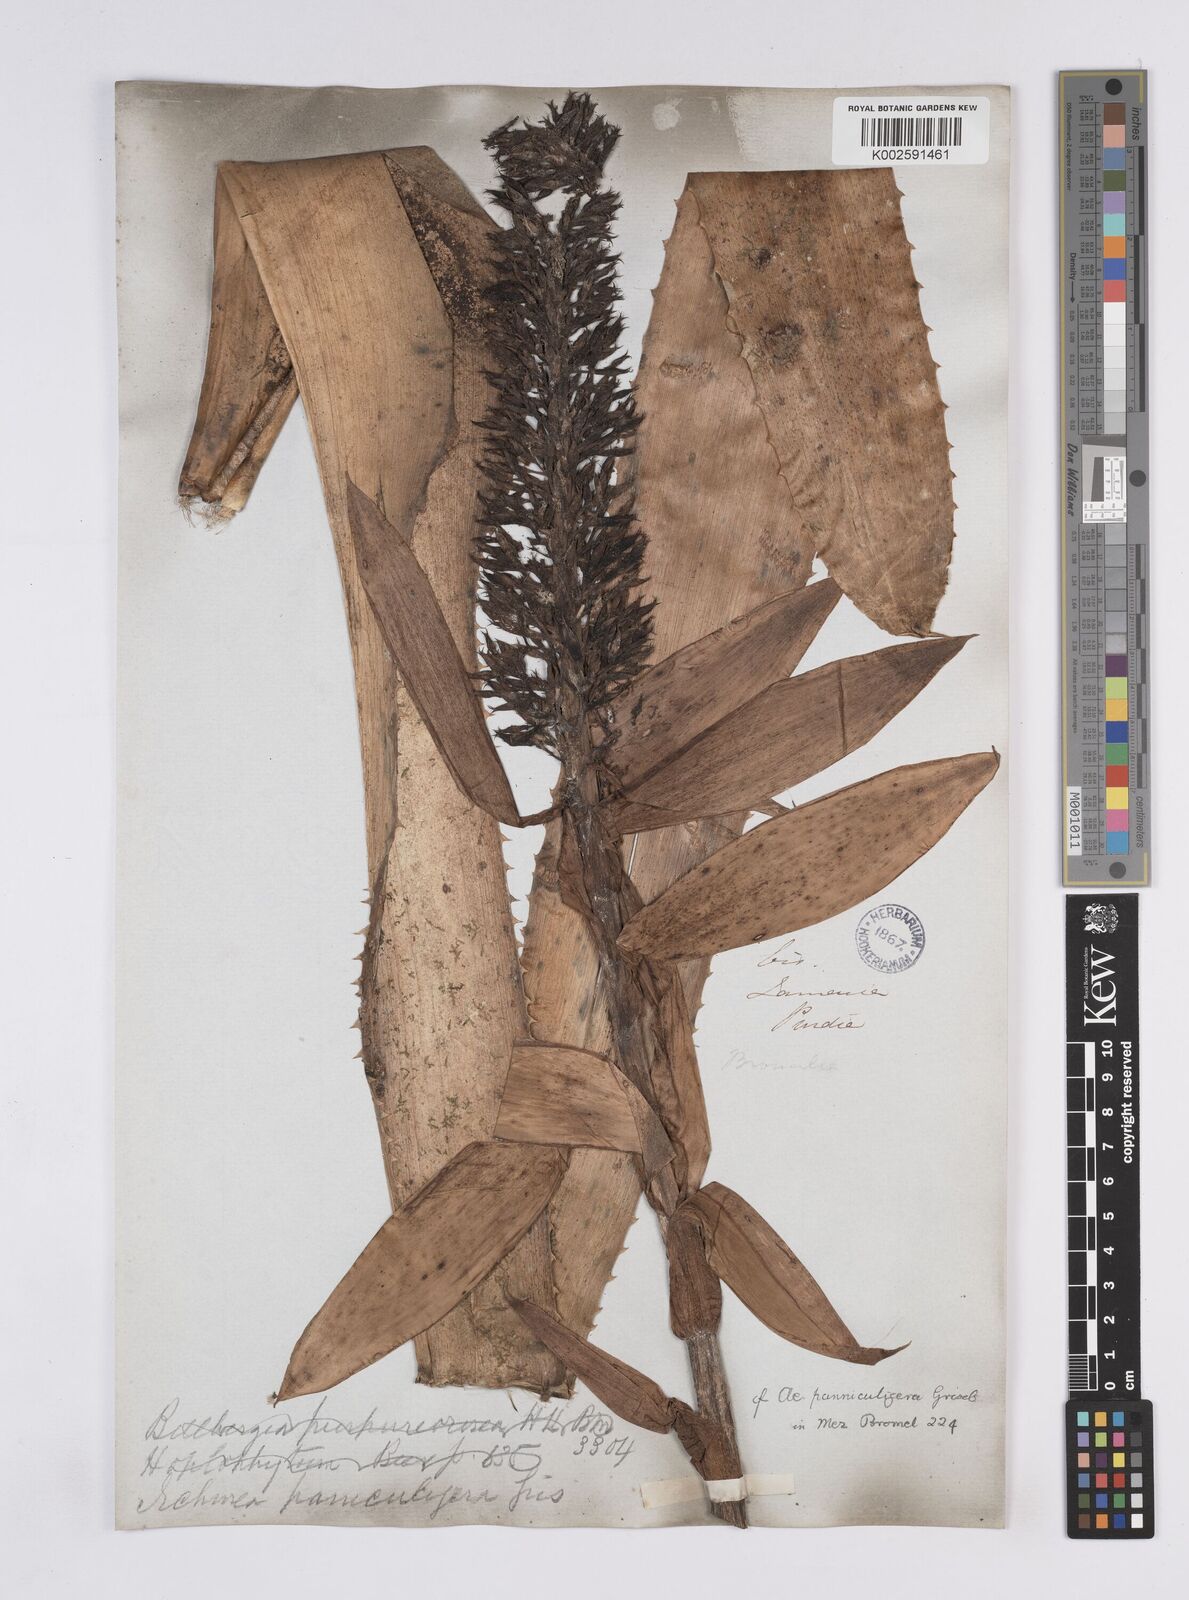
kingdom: Plantae
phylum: Tracheophyta
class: Liliopsida
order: Poales
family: Bromeliaceae
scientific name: Bromeliaceae
